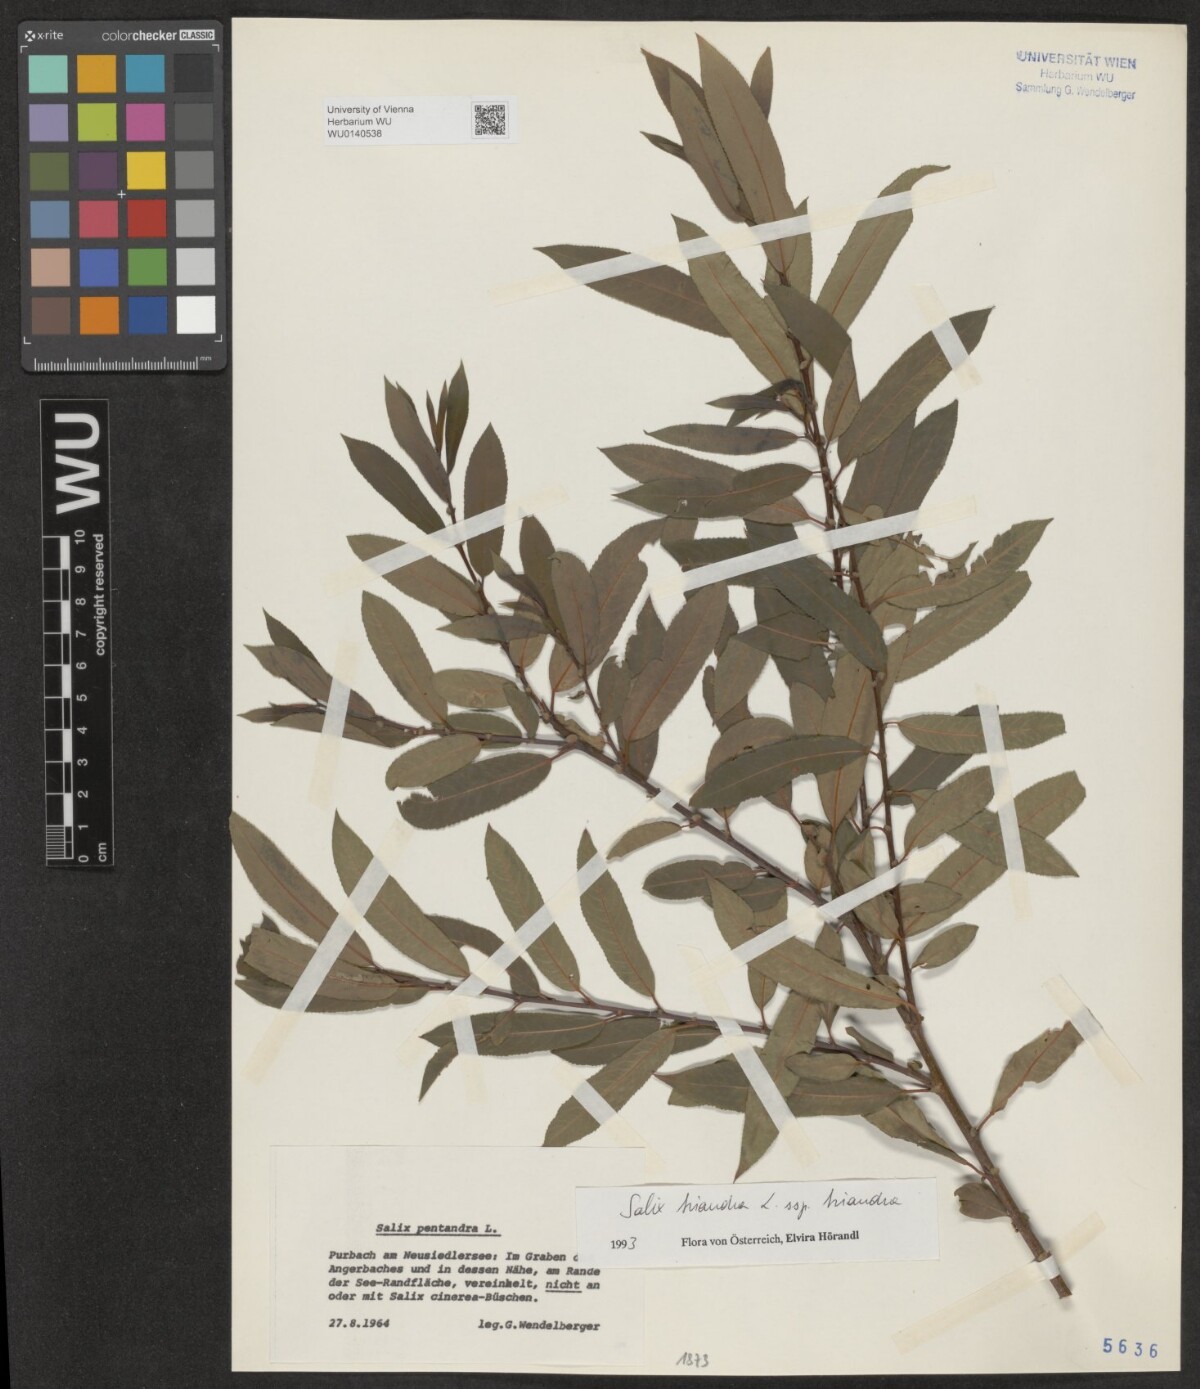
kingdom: Plantae
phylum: Tracheophyta
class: Magnoliopsida
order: Malpighiales
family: Salicaceae
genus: Salix
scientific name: Salix triandra
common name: Almond willow
